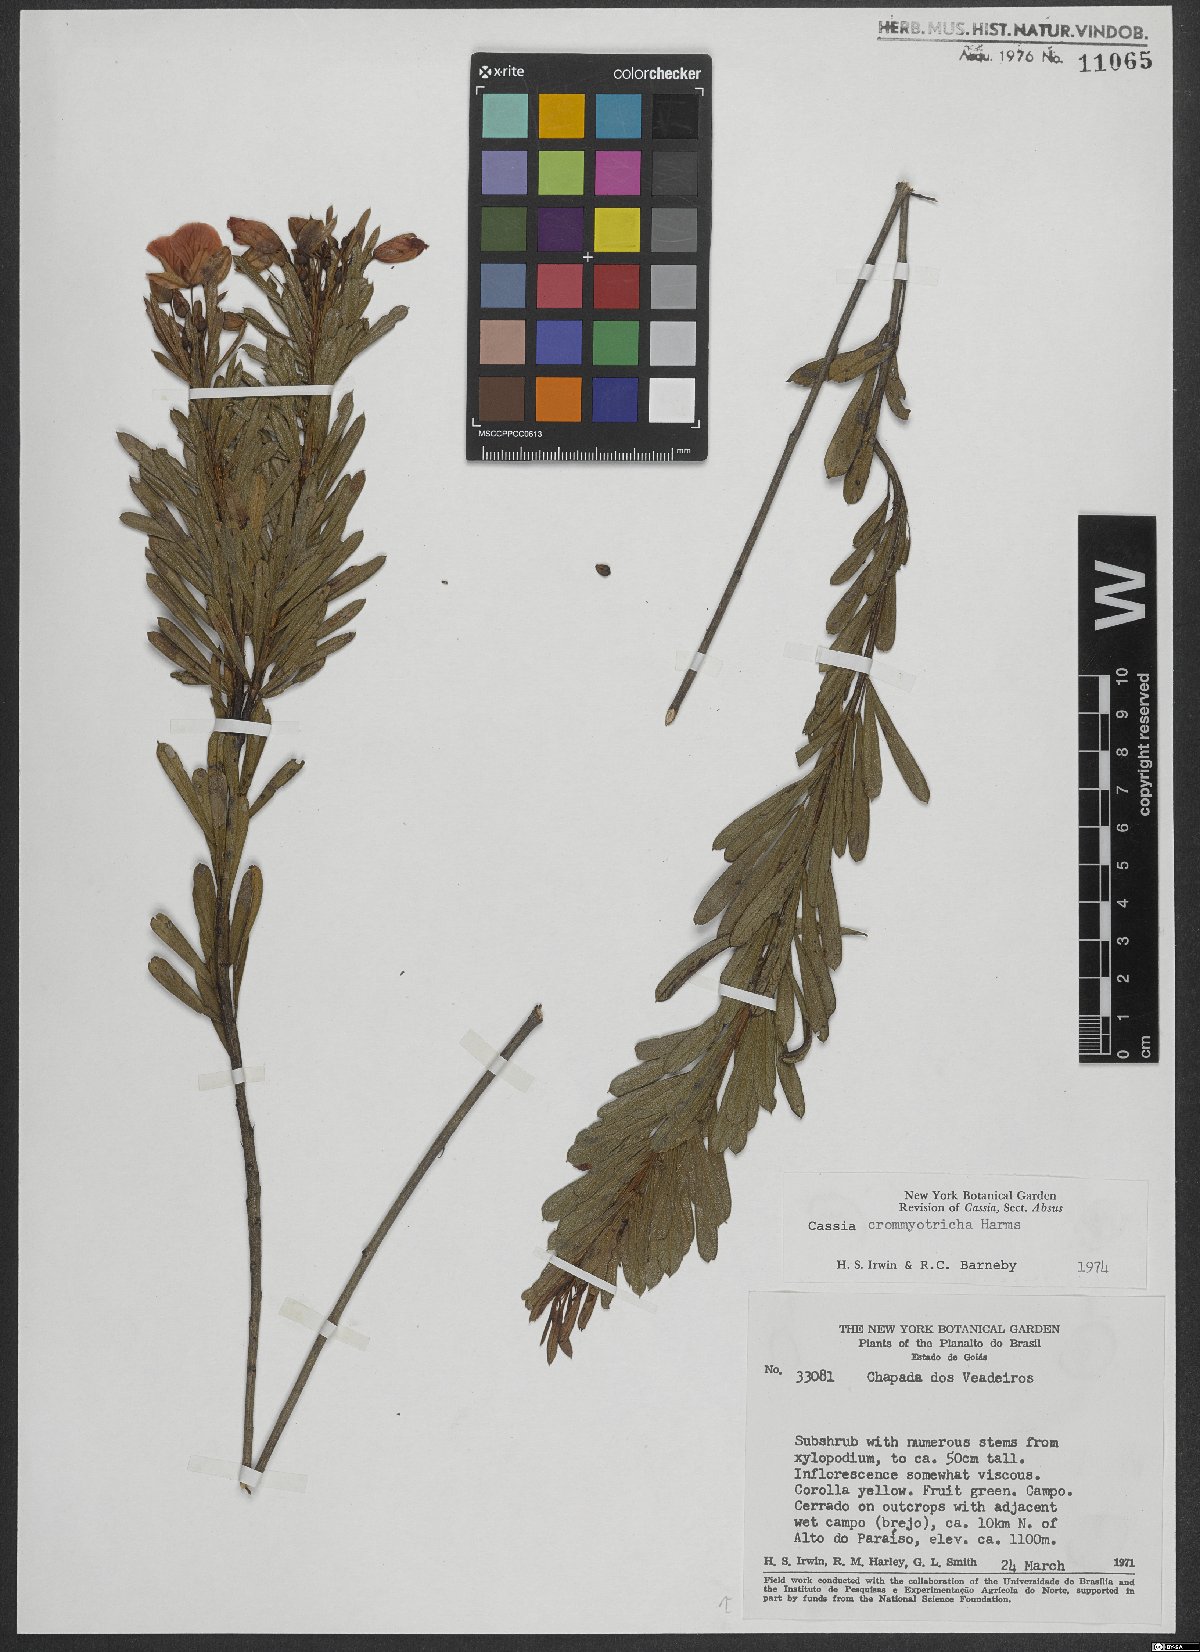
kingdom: Plantae
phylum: Tracheophyta
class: Magnoliopsida
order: Fabales
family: Fabaceae
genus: Chamaecrista
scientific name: Chamaecrista crommyotricha
